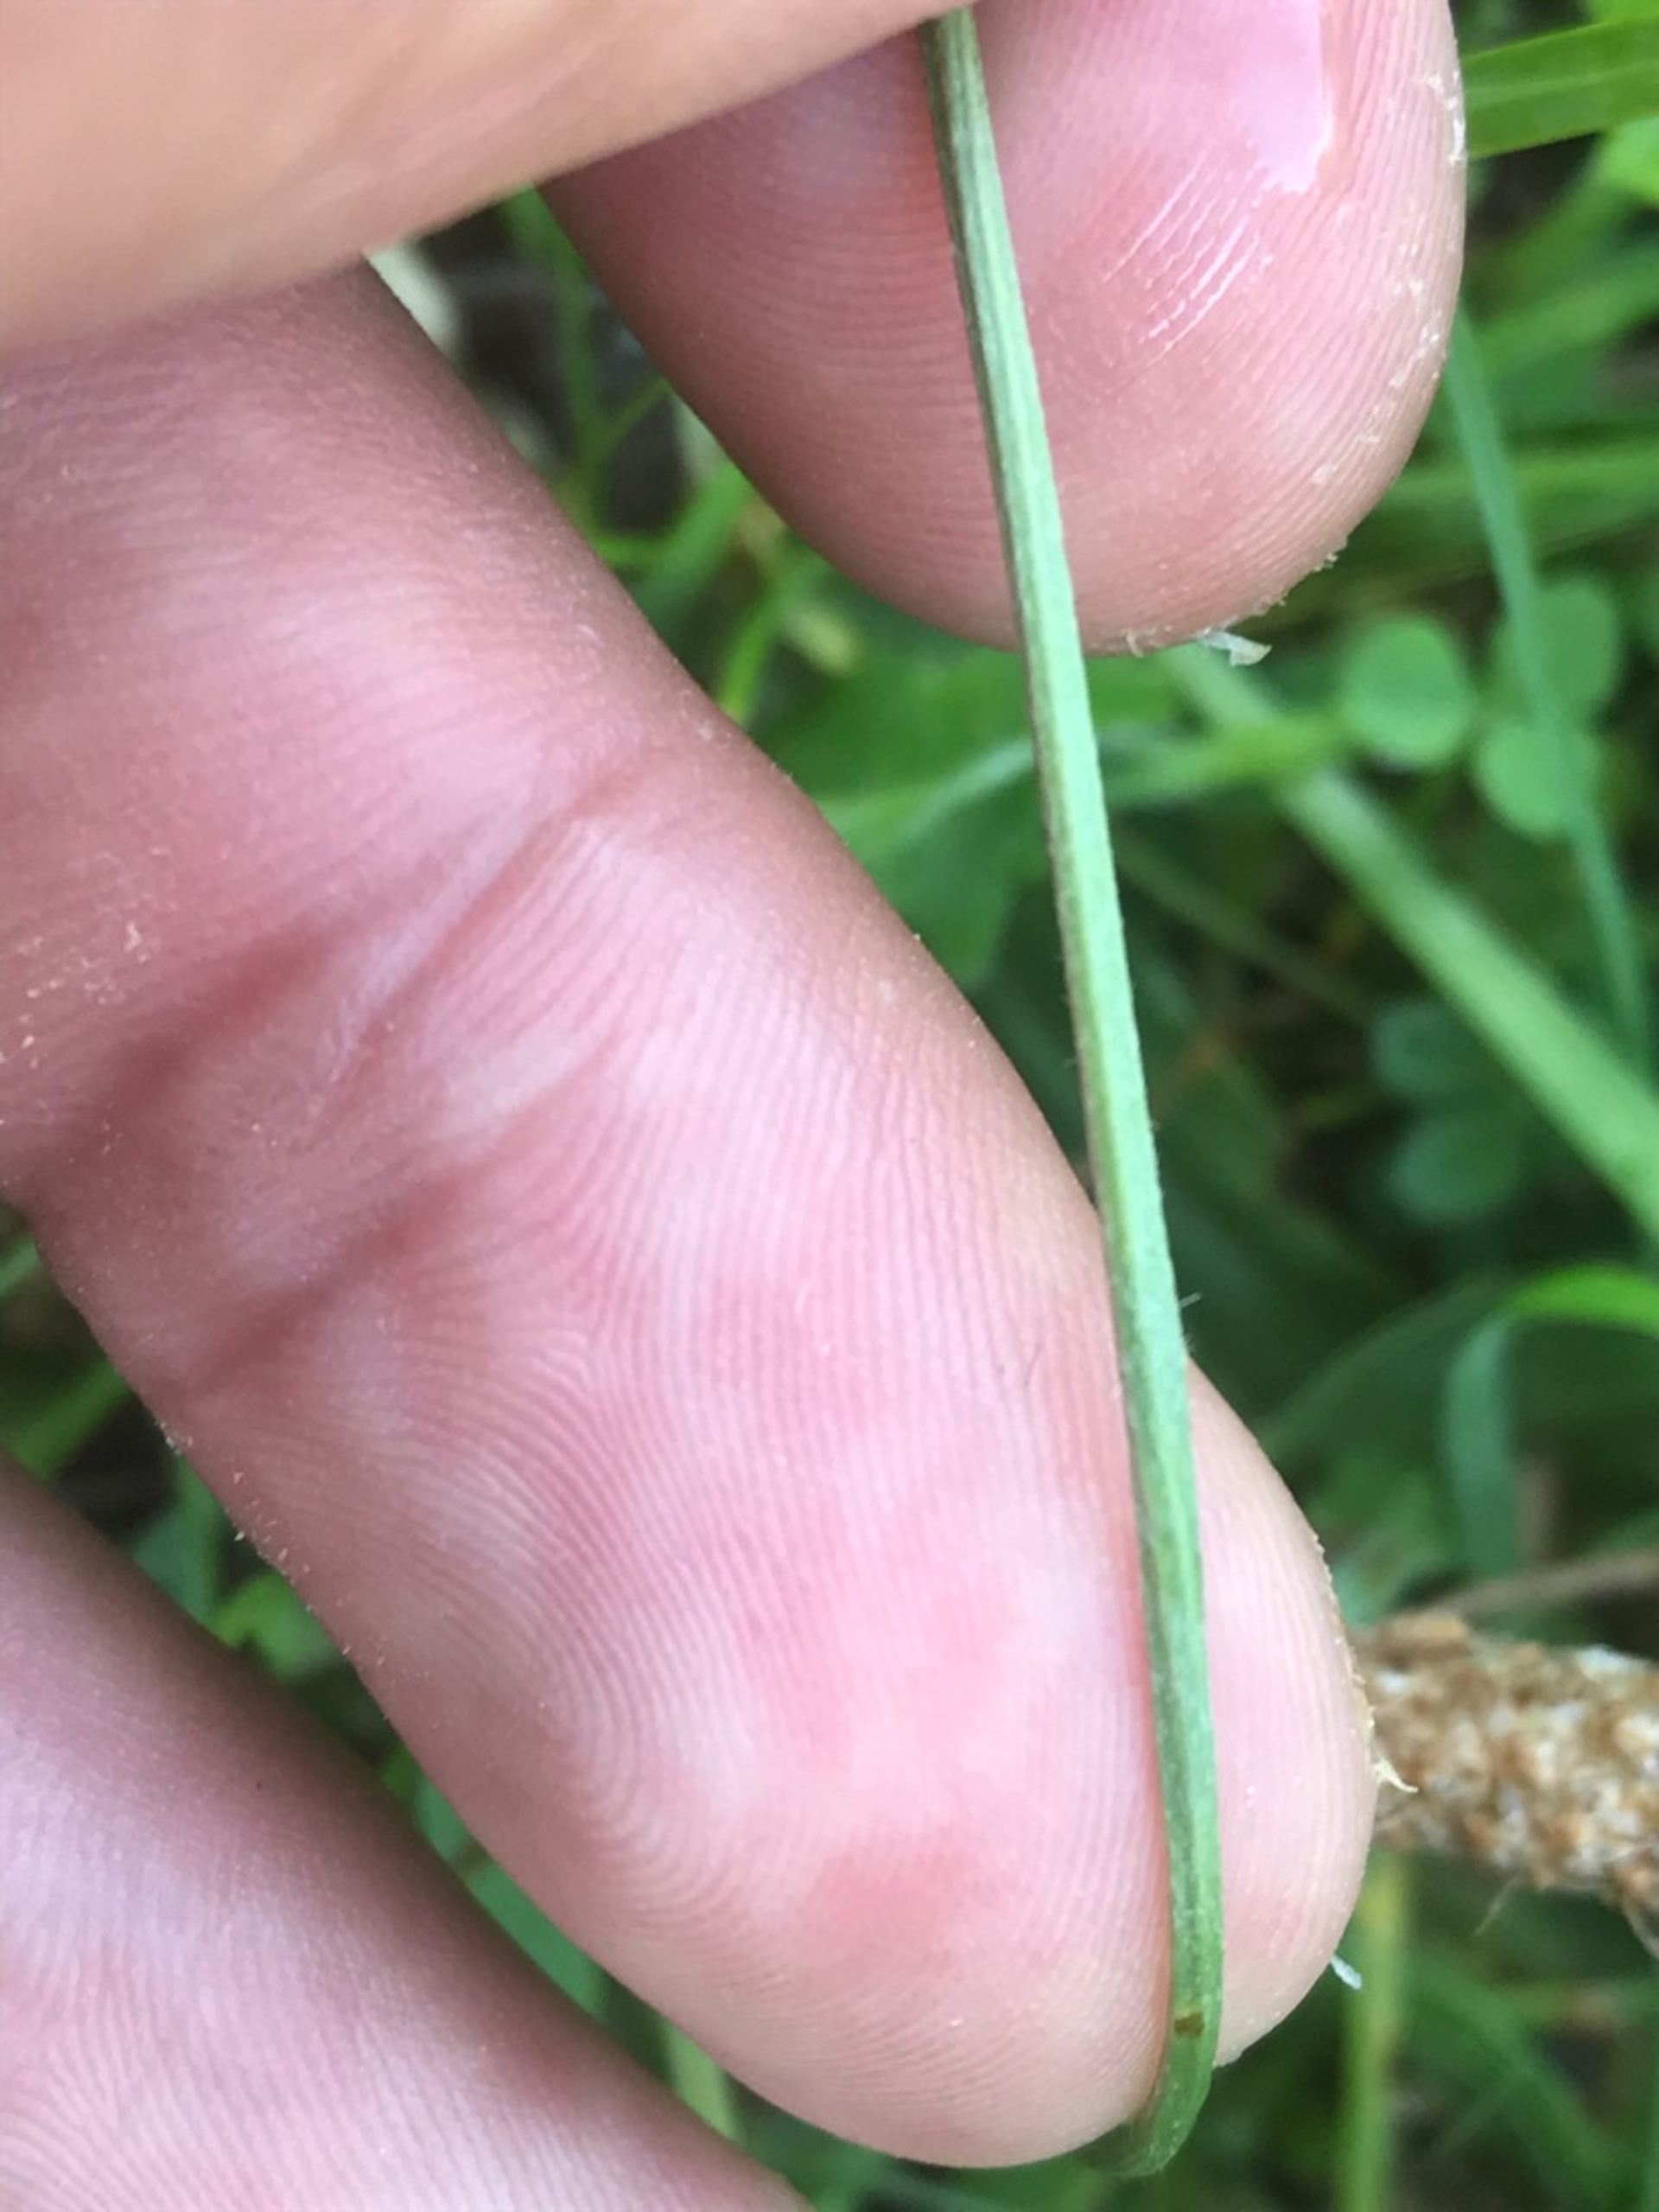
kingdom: Plantae
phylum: Tracheophyta
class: Magnoliopsida
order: Lamiales
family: Plantaginaceae
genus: Plantago
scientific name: Plantago lanceolata
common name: Lancet-vejbred
